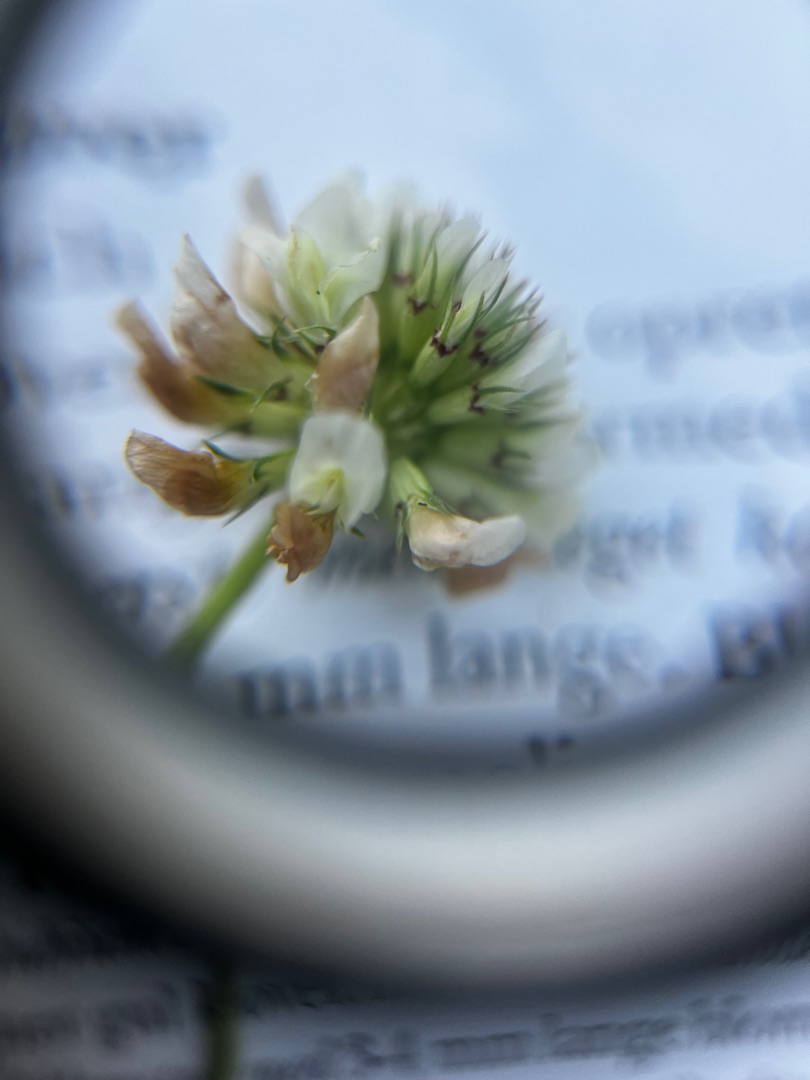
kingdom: Plantae
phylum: Tracheophyta
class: Magnoliopsida
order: Fabales
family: Fabaceae
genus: Trifolium
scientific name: Trifolium repens
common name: Hvid-kløver
